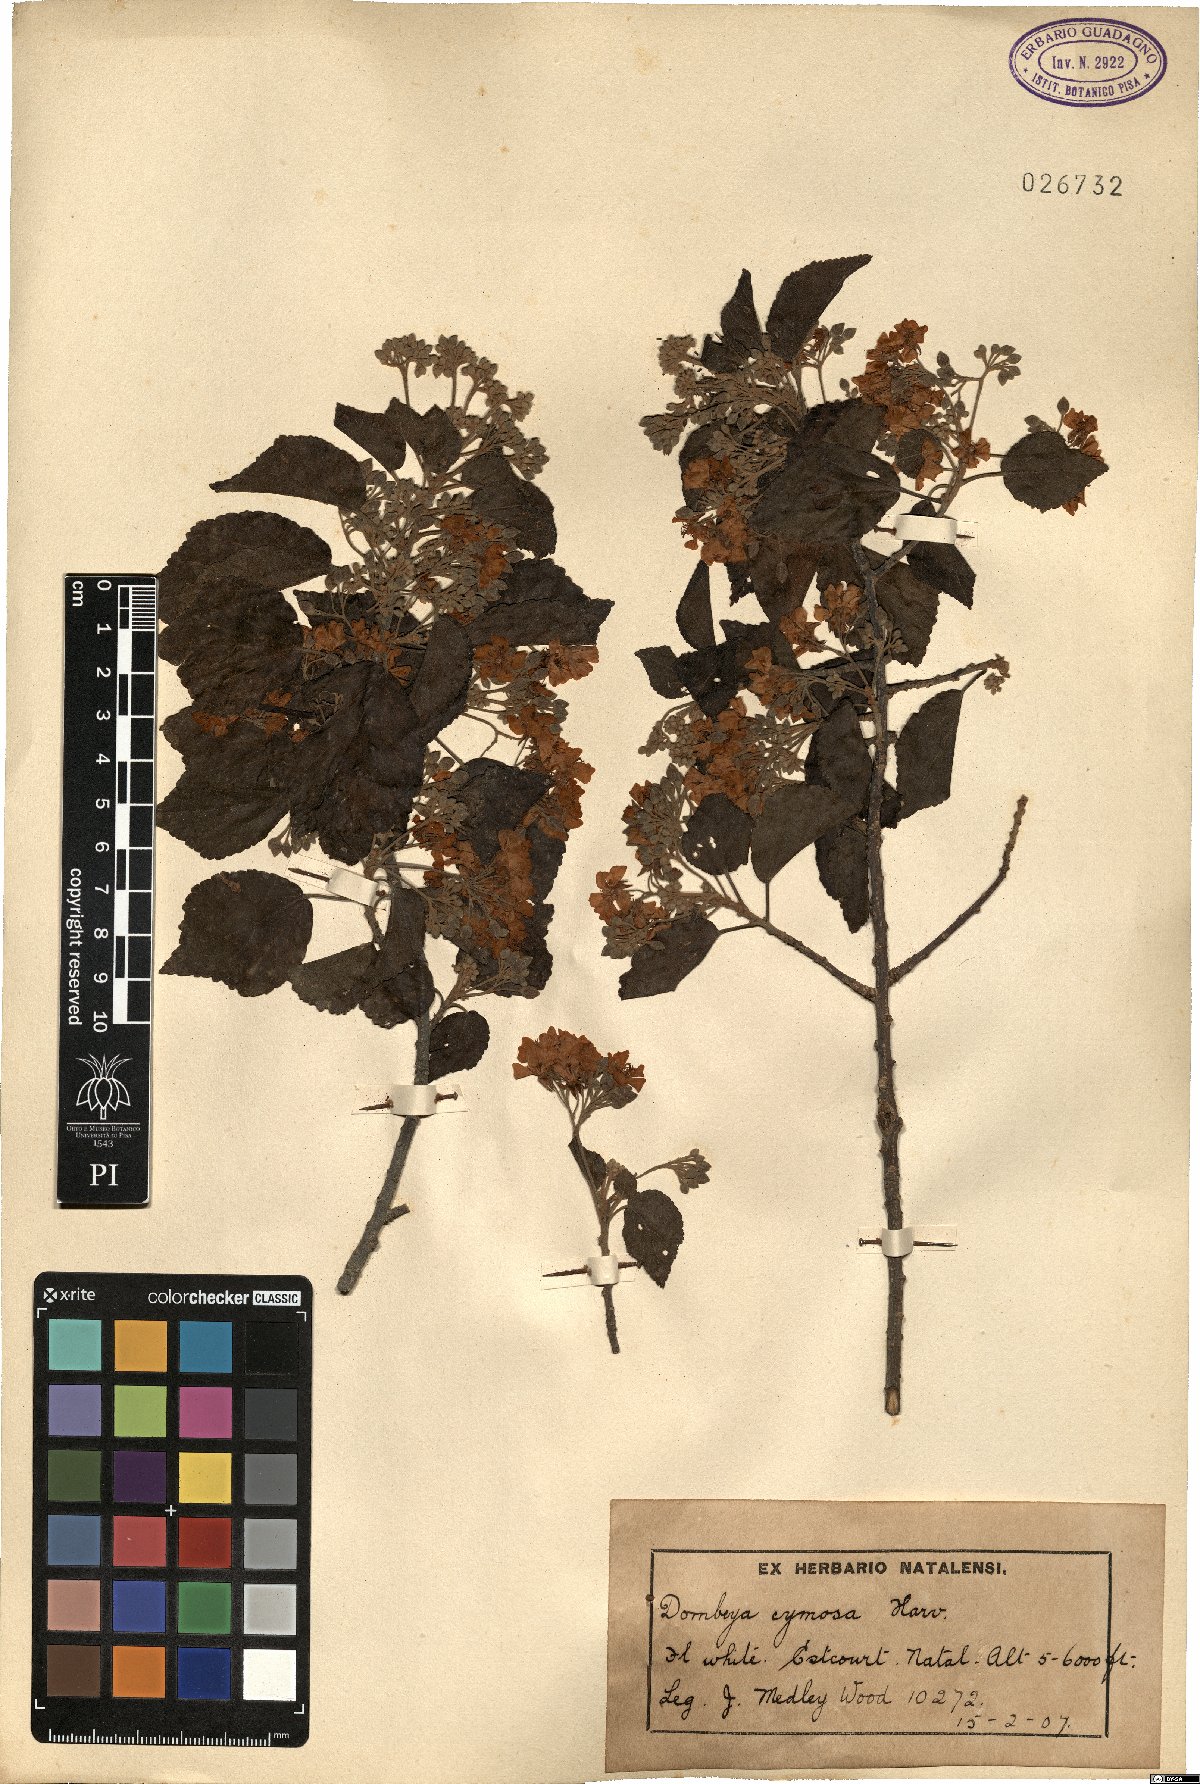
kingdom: Plantae
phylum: Tracheophyta
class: Magnoliopsida
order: Malvales
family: Malvaceae
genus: Dombeya
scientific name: Dombeya cymosa
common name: Hairless dombeya
